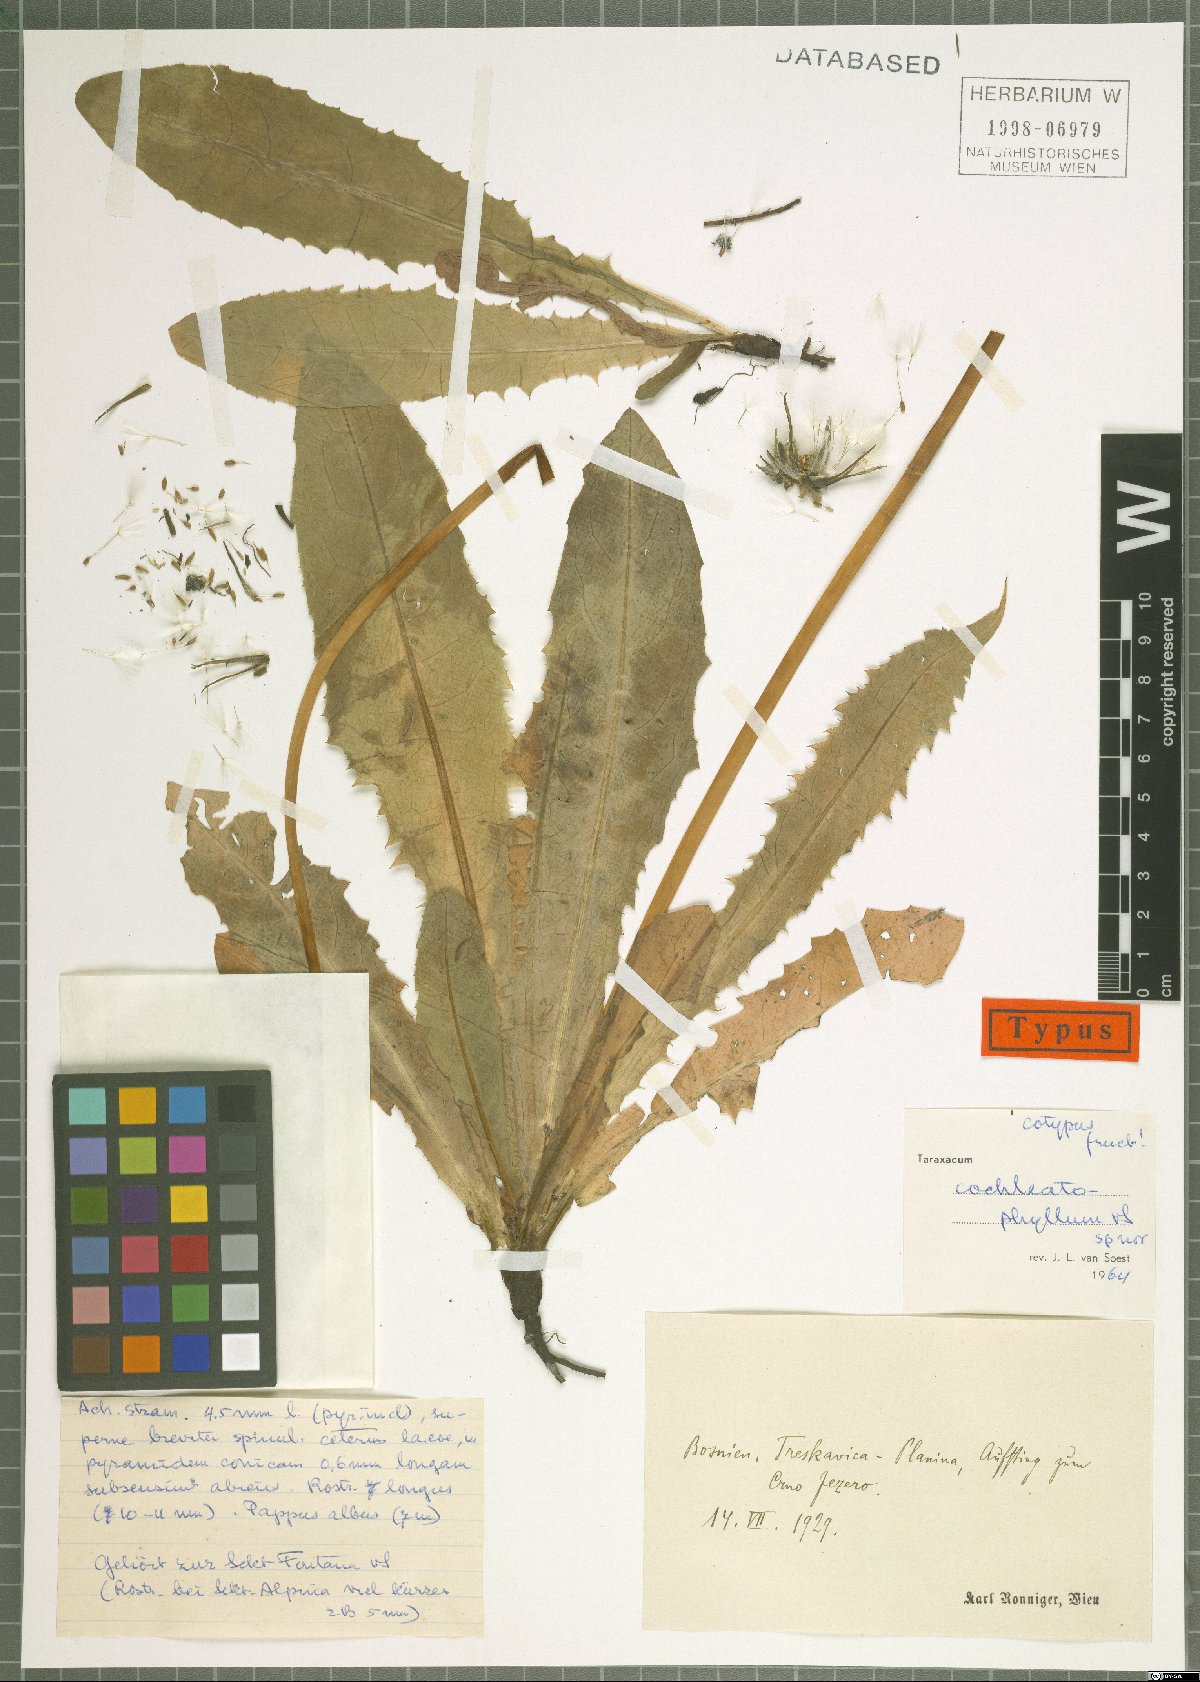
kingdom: Plantae
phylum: Tracheophyta
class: Magnoliopsida
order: Asterales
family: Asteraceae
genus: Taraxacum
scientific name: Taraxacum cochleatophyllum
